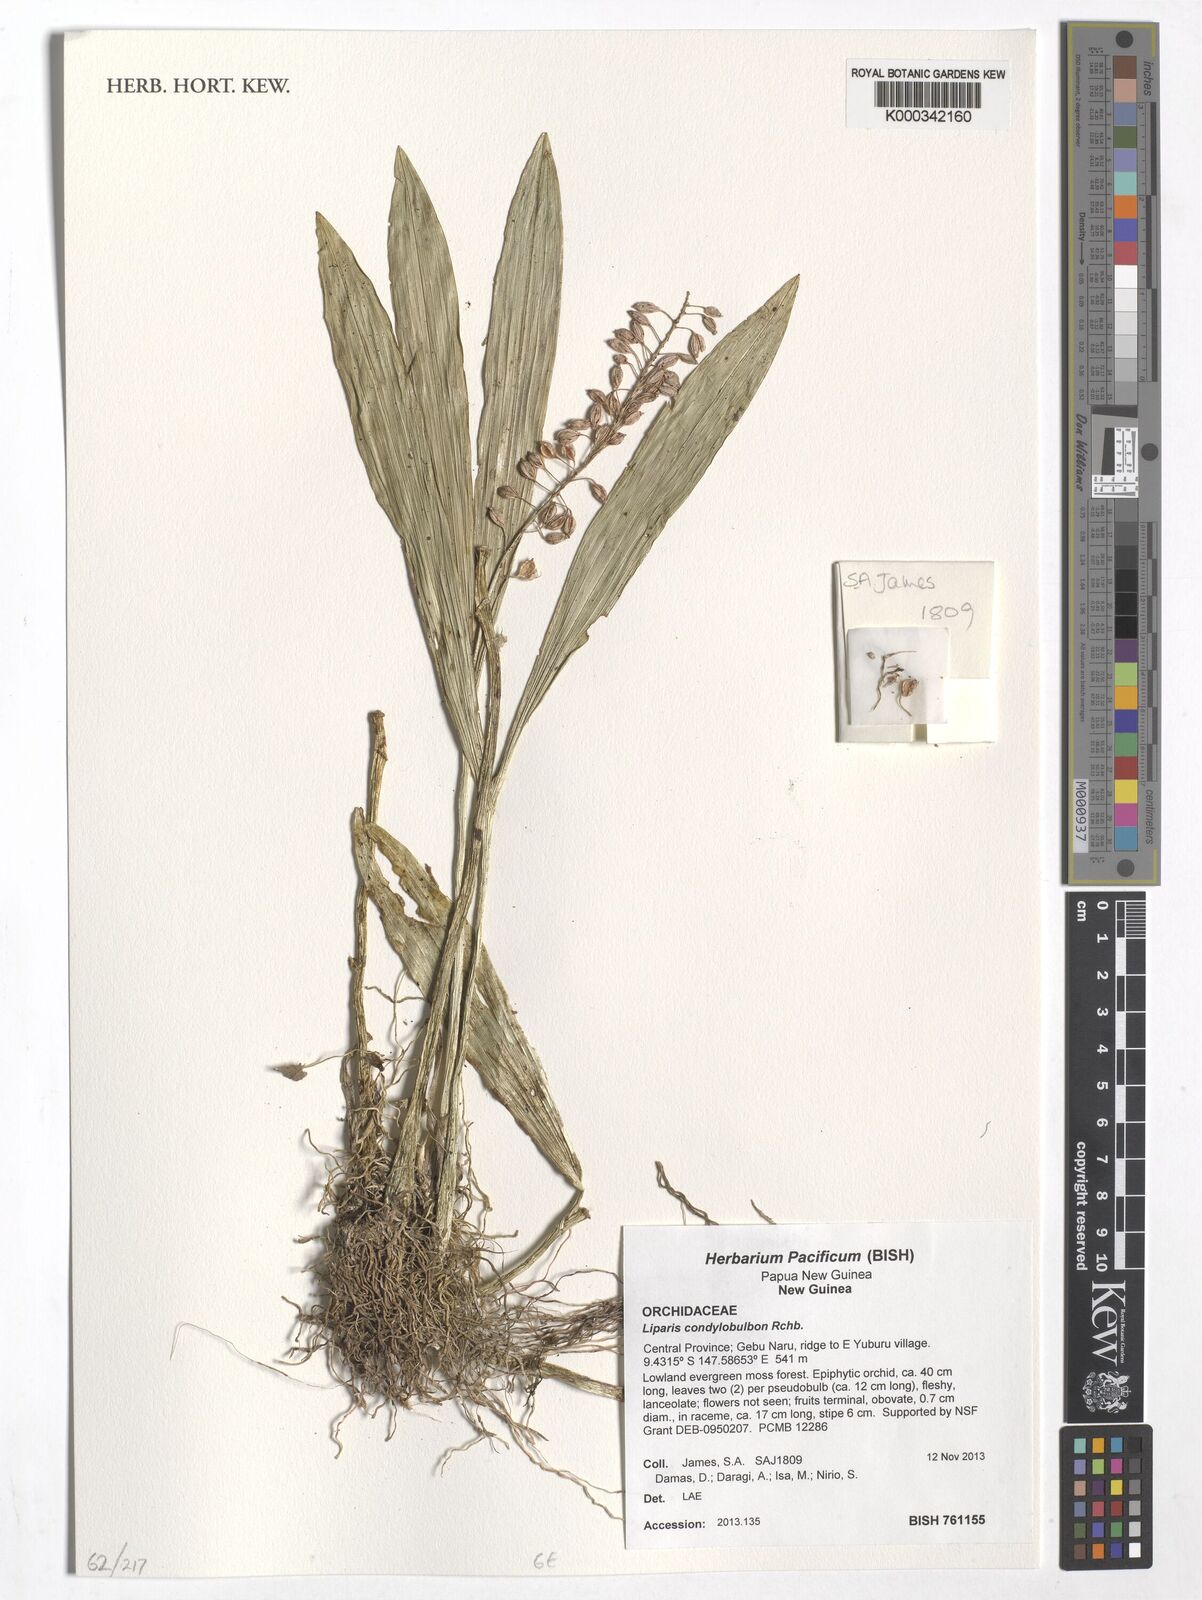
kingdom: Plantae
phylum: Tracheophyta
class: Liliopsida
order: Asparagales
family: Orchidaceae
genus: Liparis
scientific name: Liparis condylobulbon
